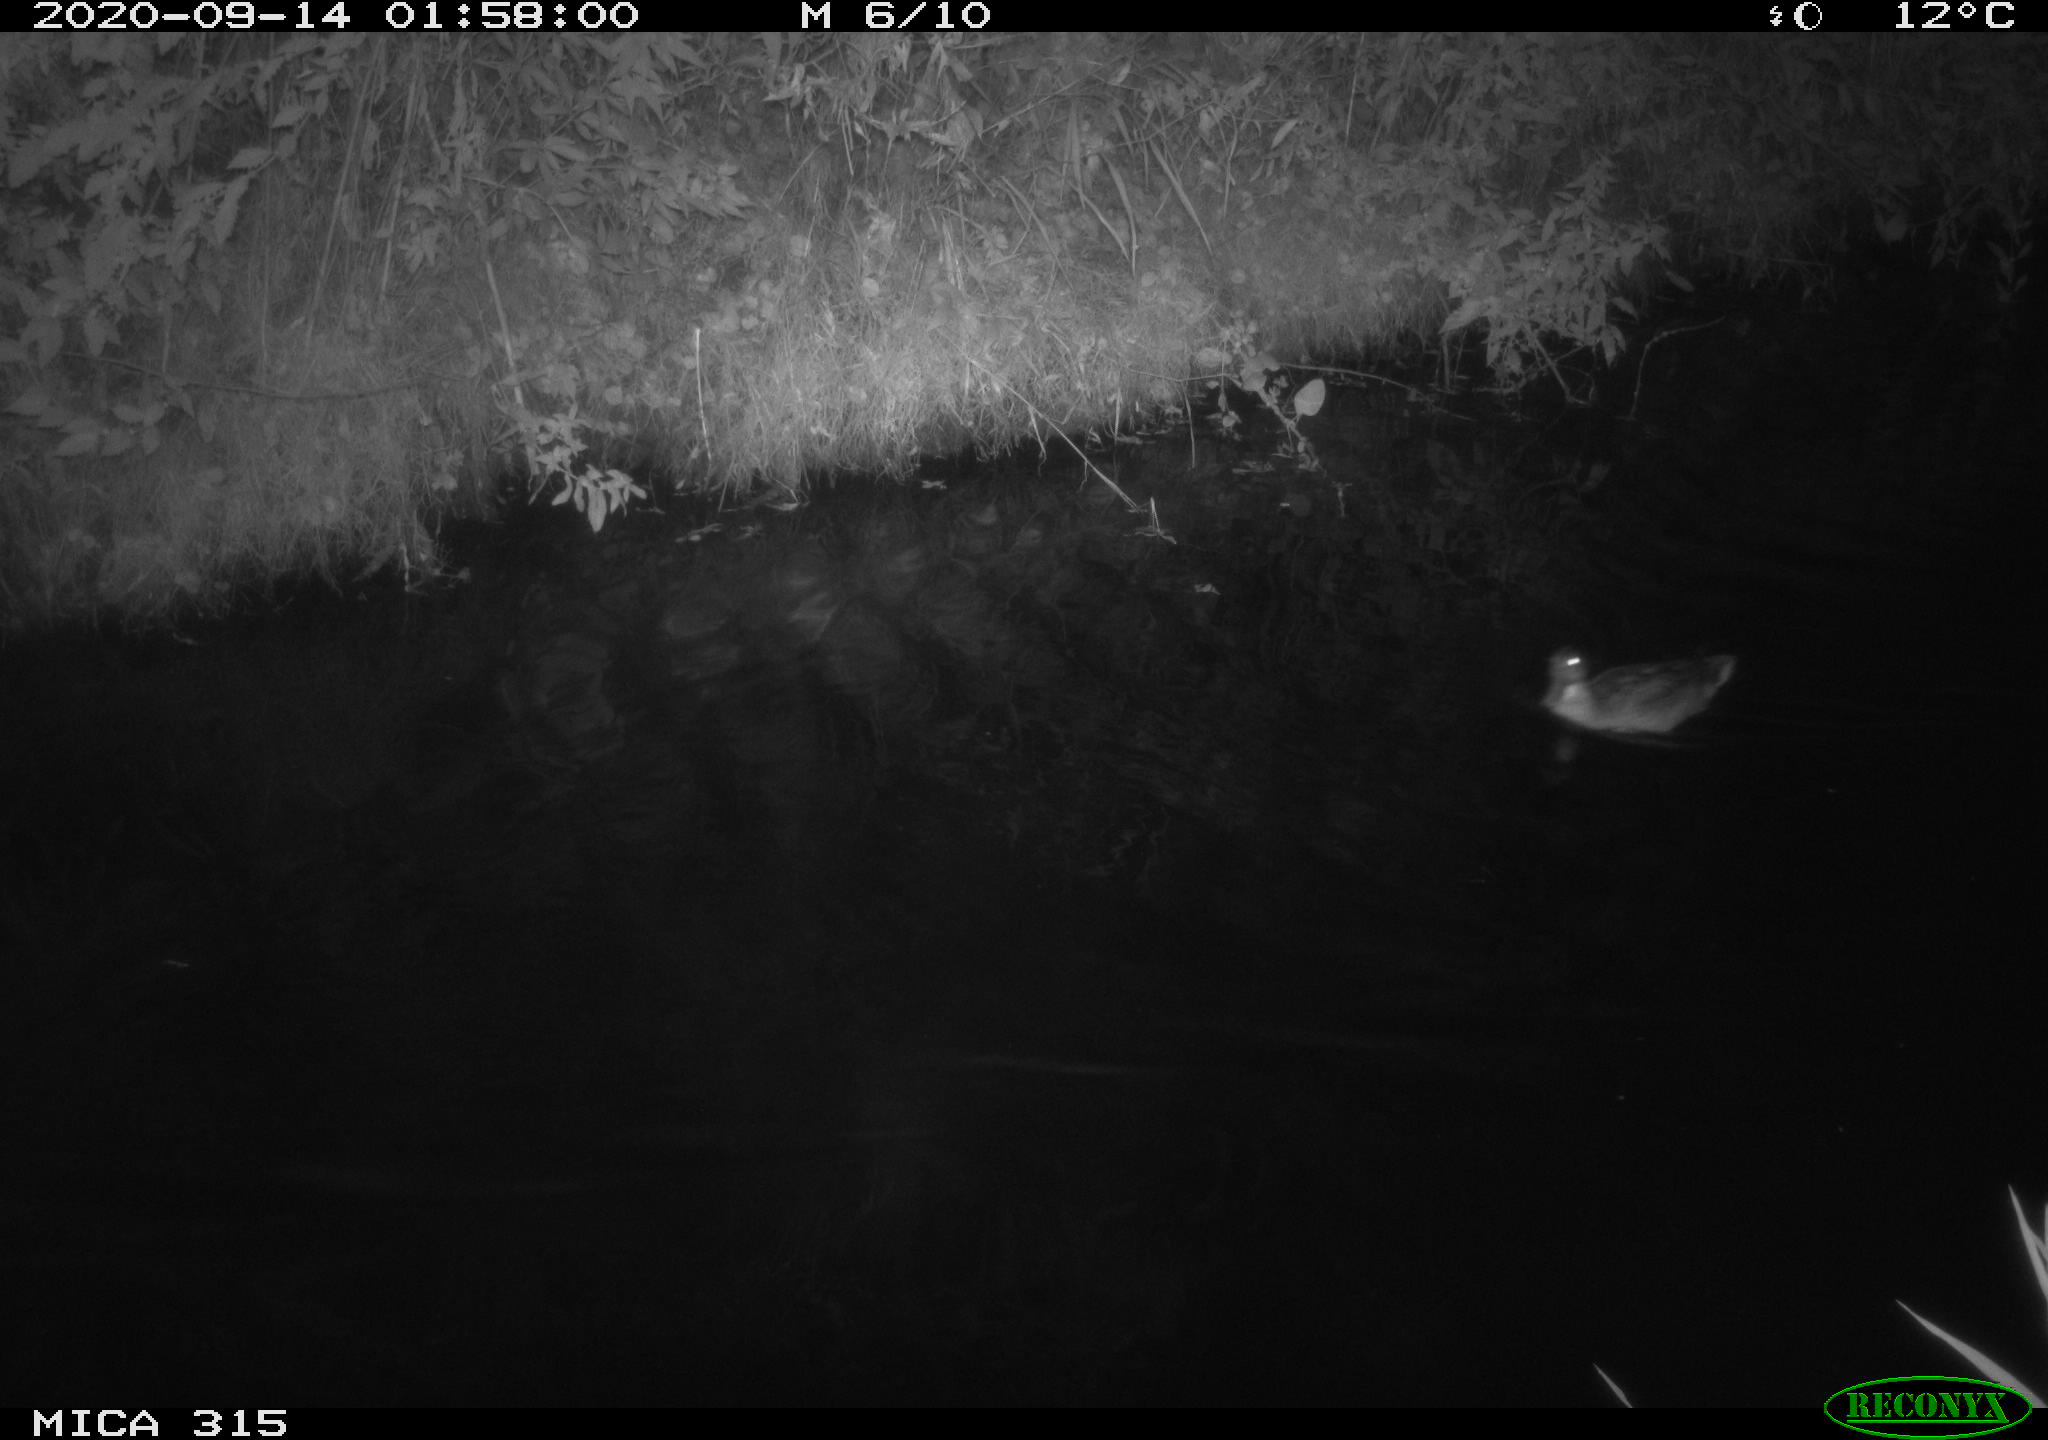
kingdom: Animalia
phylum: Chordata
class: Aves
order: Anseriformes
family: Anatidae
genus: Anas
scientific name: Anas platyrhynchos
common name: Mallard
